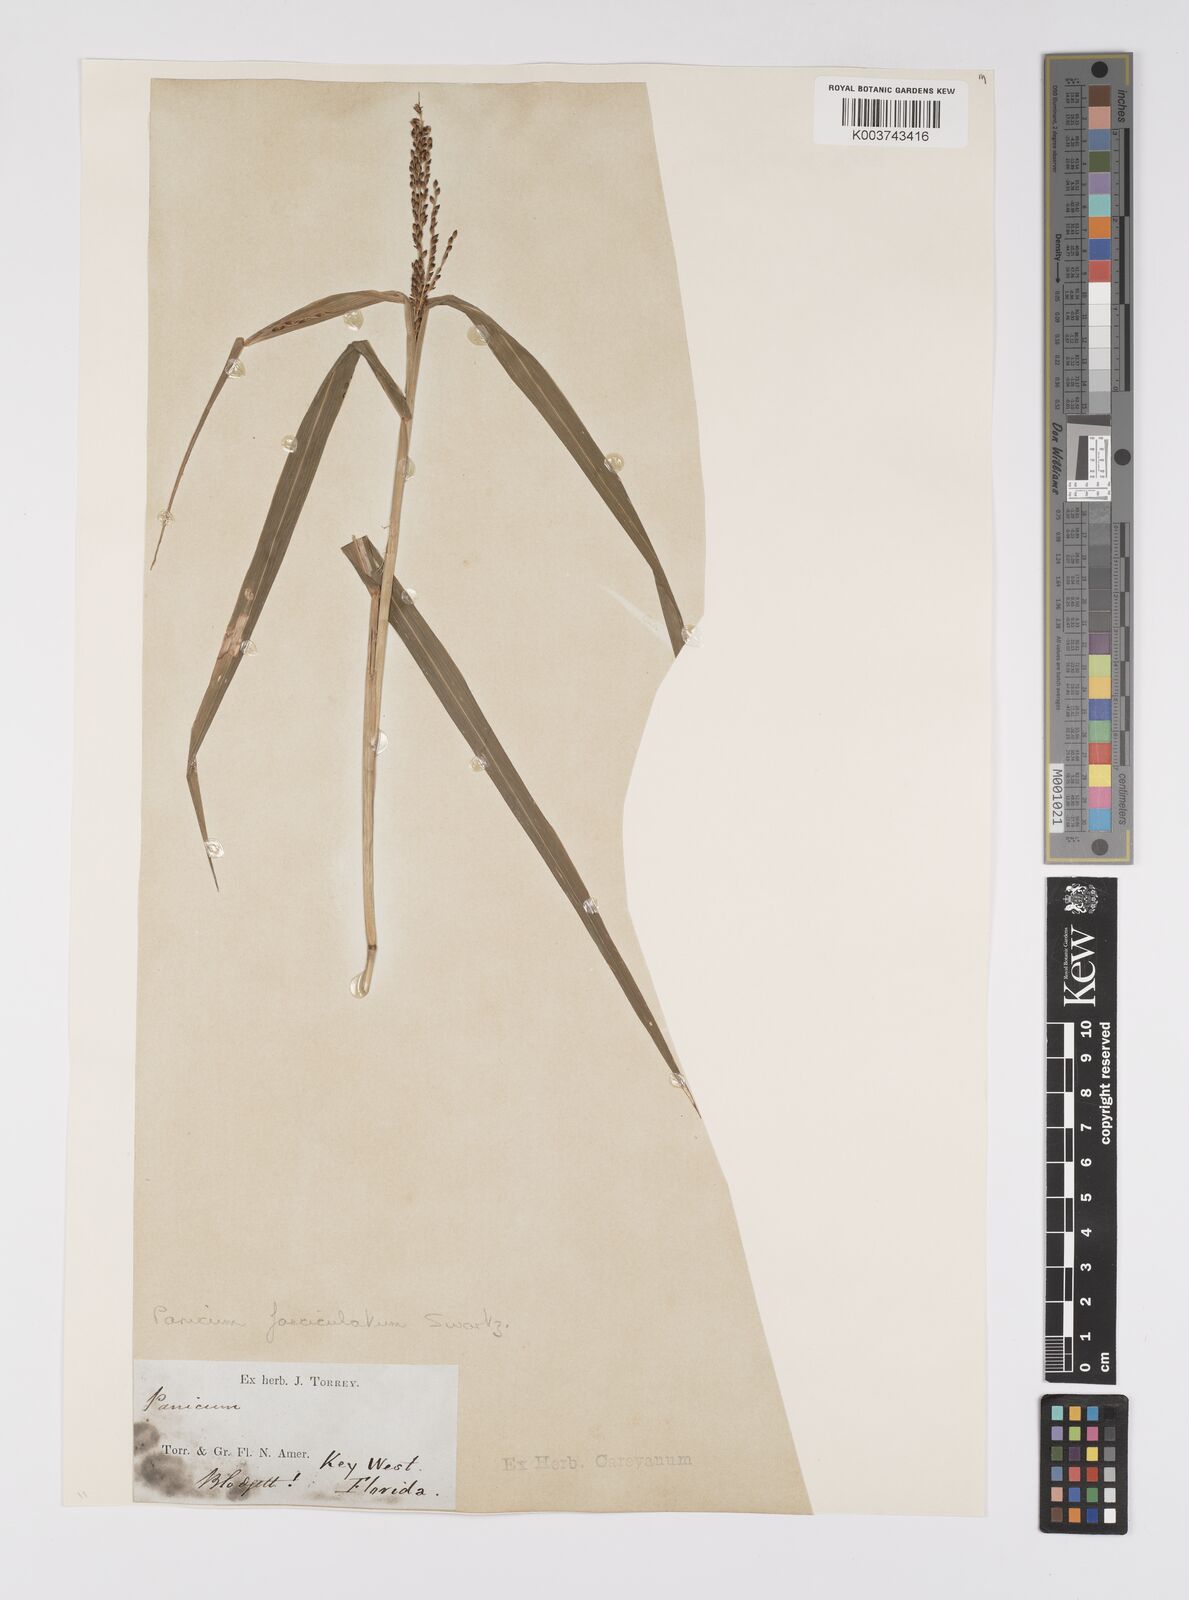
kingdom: Plantae
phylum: Tracheophyta
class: Liliopsida
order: Poales
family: Poaceae
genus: Urochloa
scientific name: Urochloa fusca
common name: Browntop signal grass
